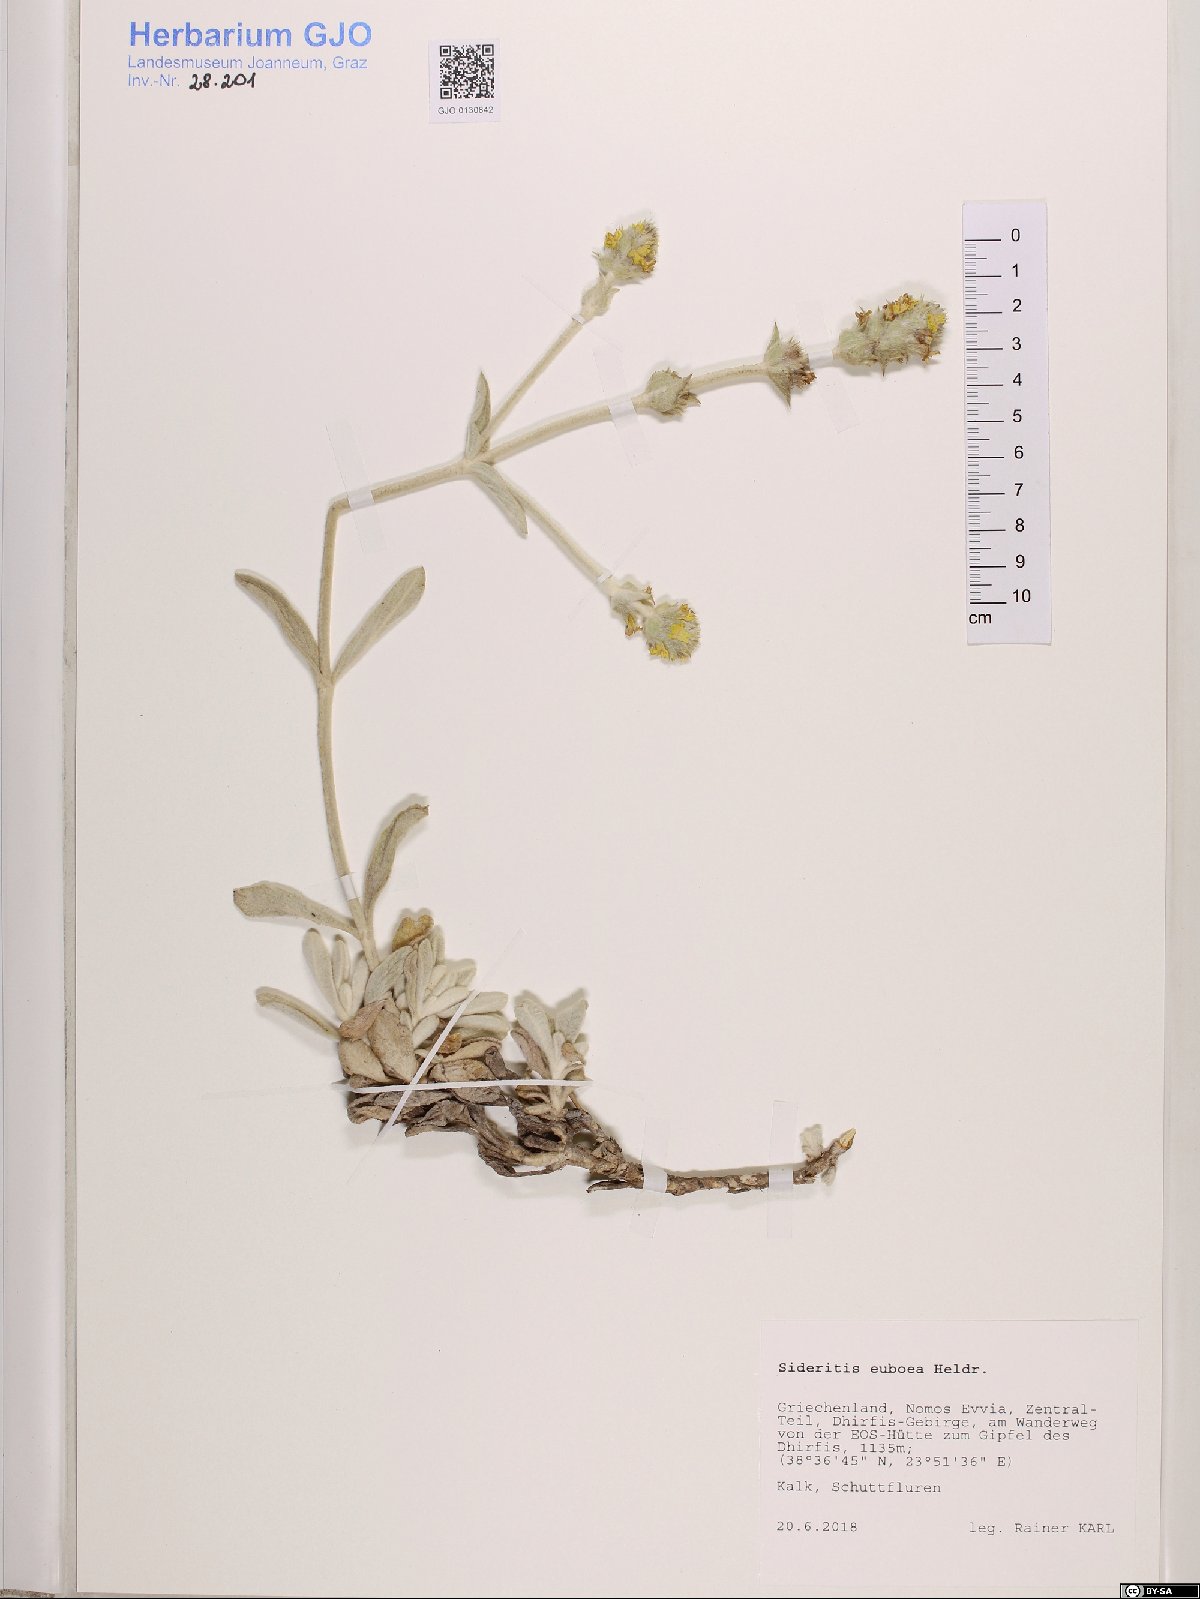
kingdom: Plantae
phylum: Tracheophyta
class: Magnoliopsida
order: Lamiales
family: Lamiaceae
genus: Sideritis
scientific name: Sideritis euboea
